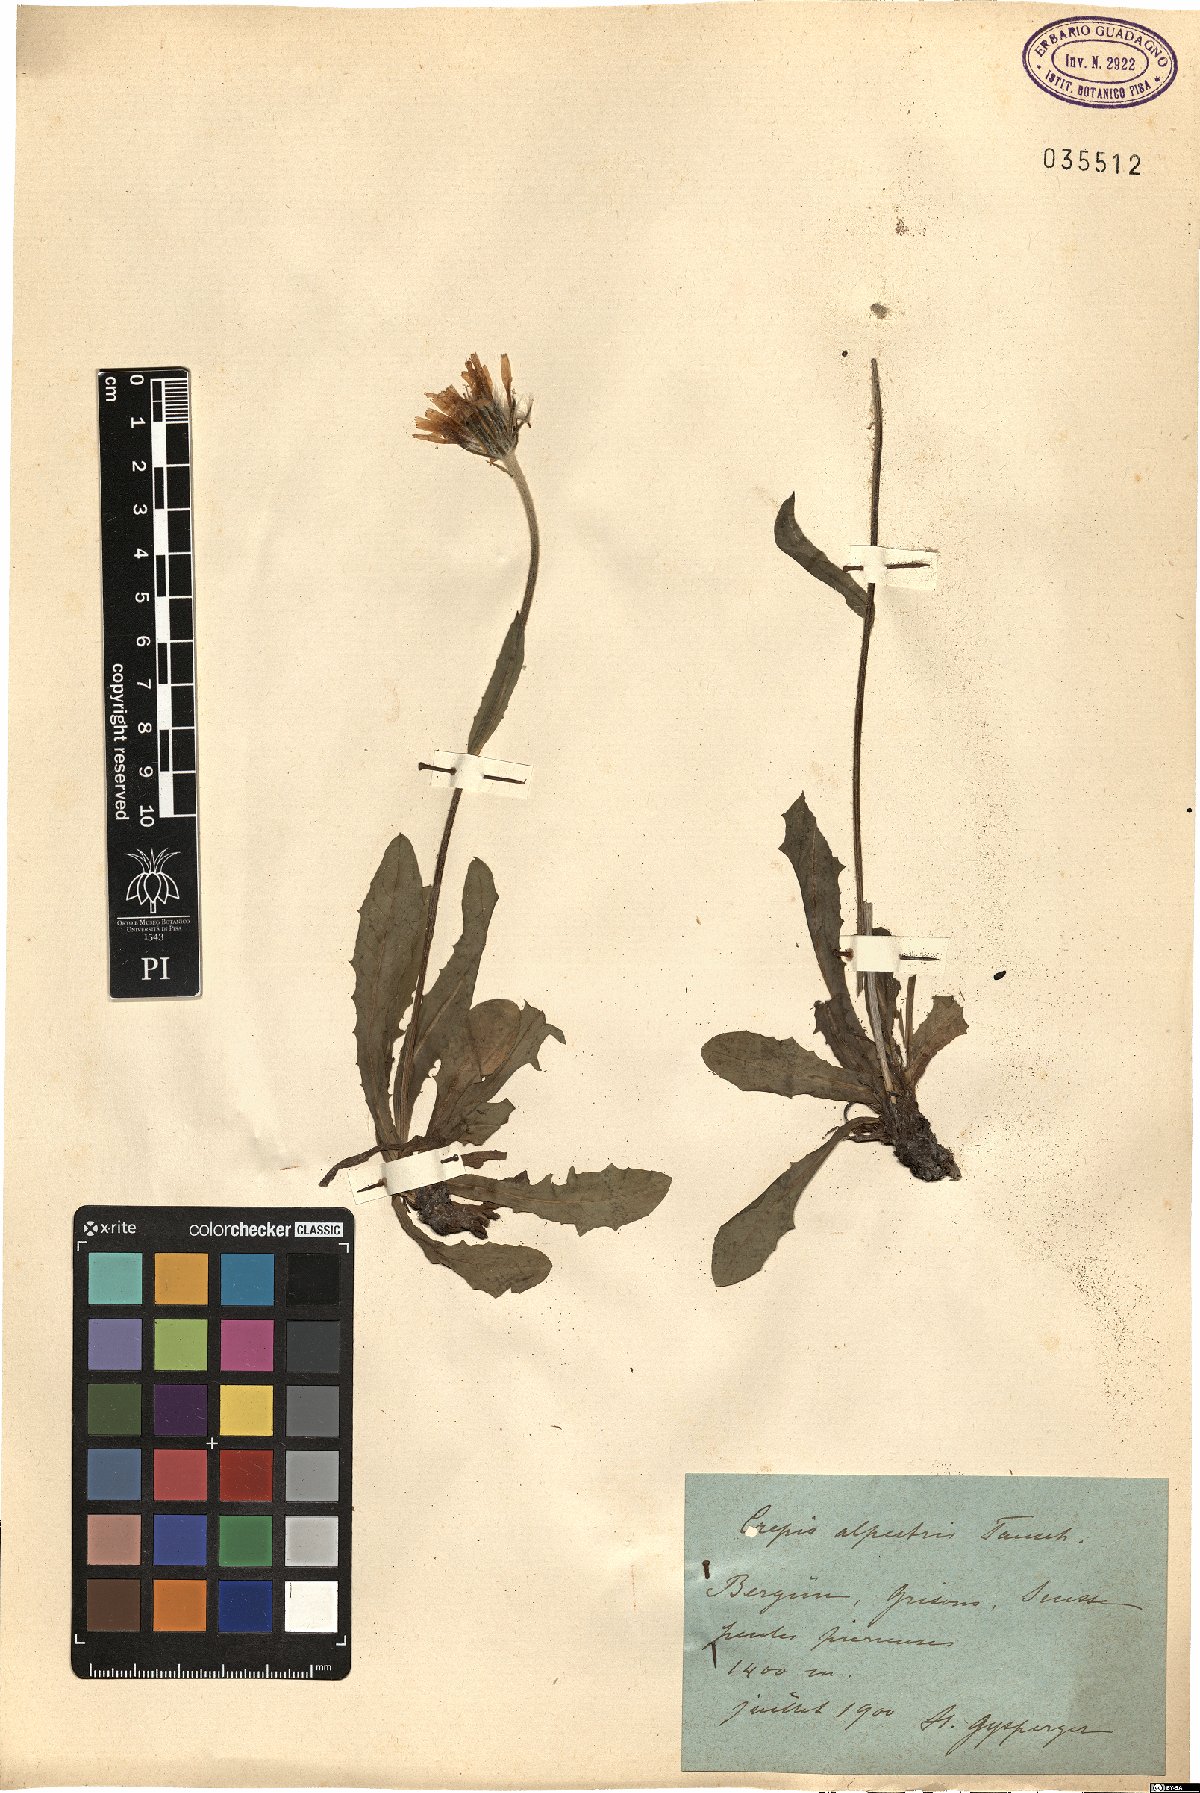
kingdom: Plantae
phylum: Tracheophyta
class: Magnoliopsida
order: Asterales
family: Asteraceae
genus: Crepis
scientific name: Crepis alpestris
